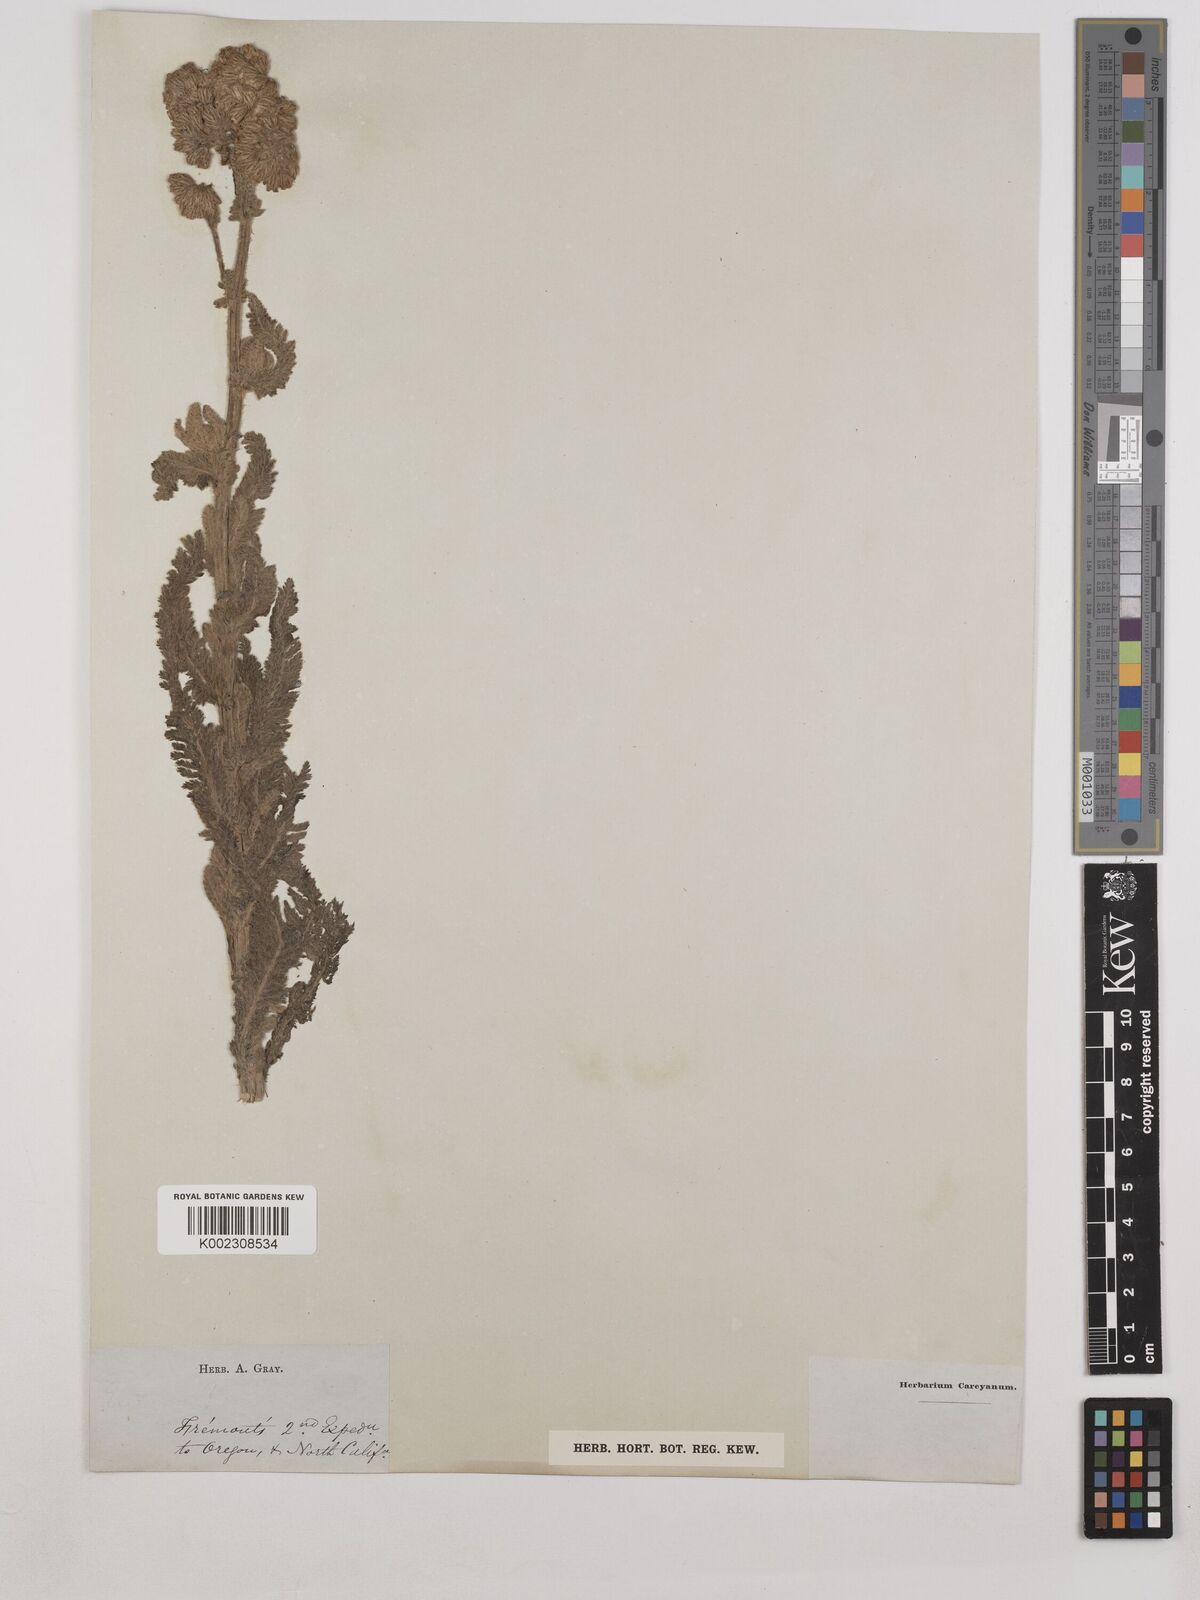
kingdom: Plantae
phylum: Tracheophyta
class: Magnoliopsida
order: Asterales
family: Asteraceae
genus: Achillea
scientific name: Achillea
